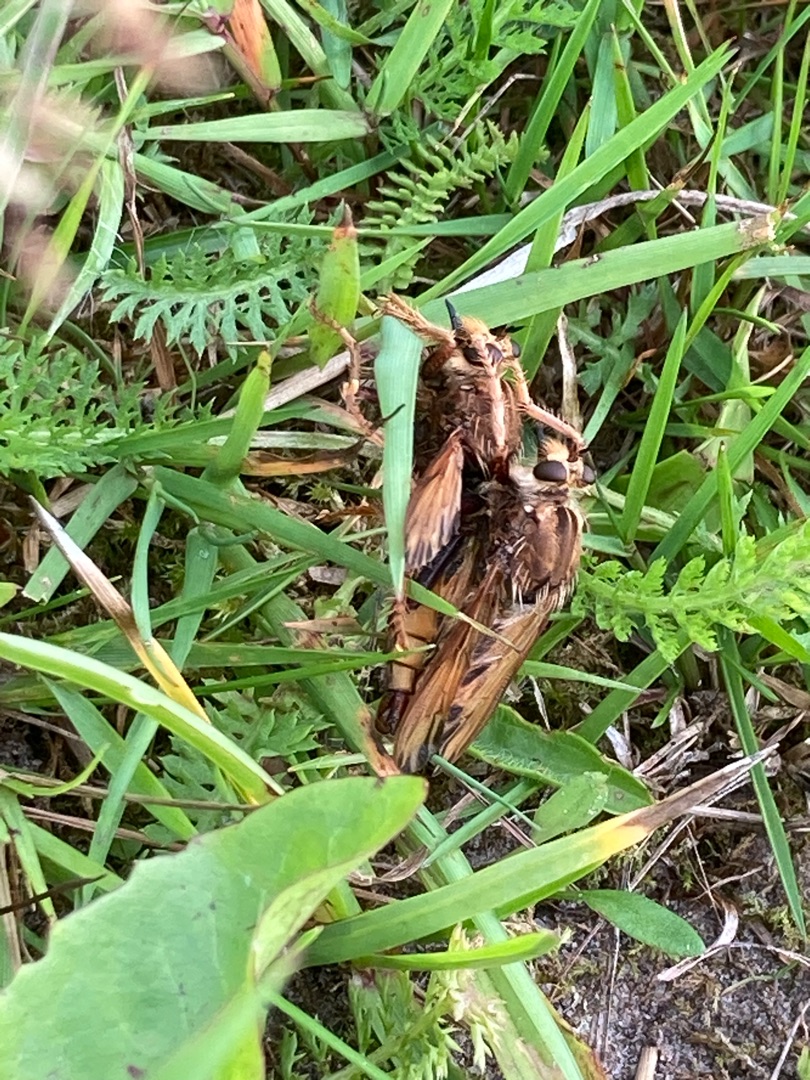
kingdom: Animalia
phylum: Arthropoda
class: Insecta
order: Diptera
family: Asilidae
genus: Asilus
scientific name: Asilus crabroniformis
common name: Stor gødningsrovflue
